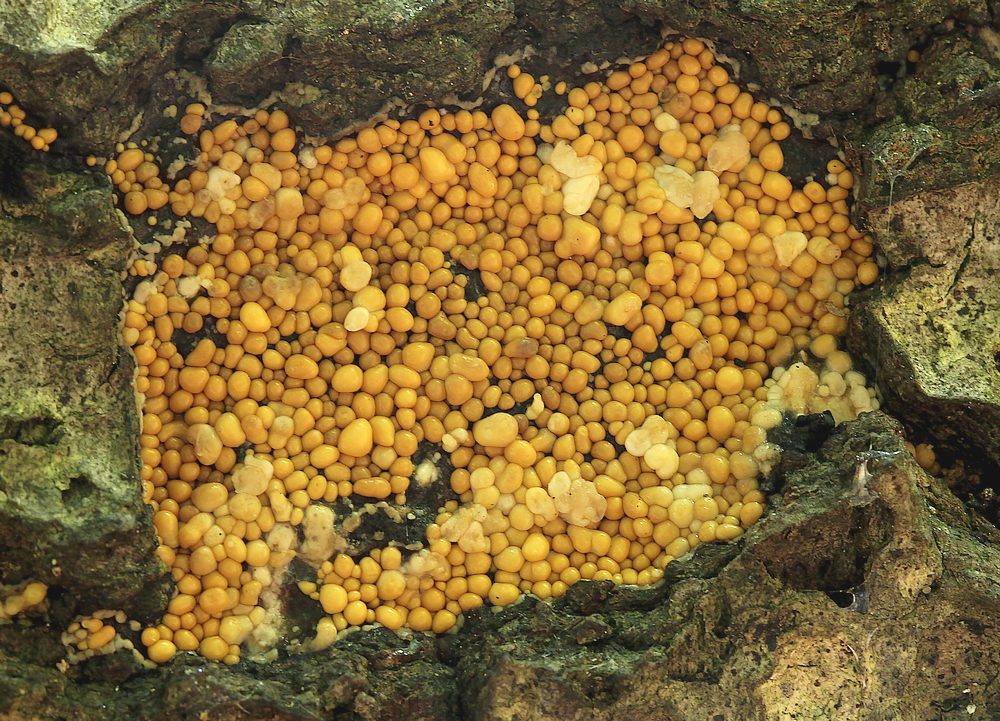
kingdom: Protozoa
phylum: Mycetozoa
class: Myxomycetes
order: Trichiales
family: Trichiaceae
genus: Trichia
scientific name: Trichia varia
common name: foranderlig hårbold
